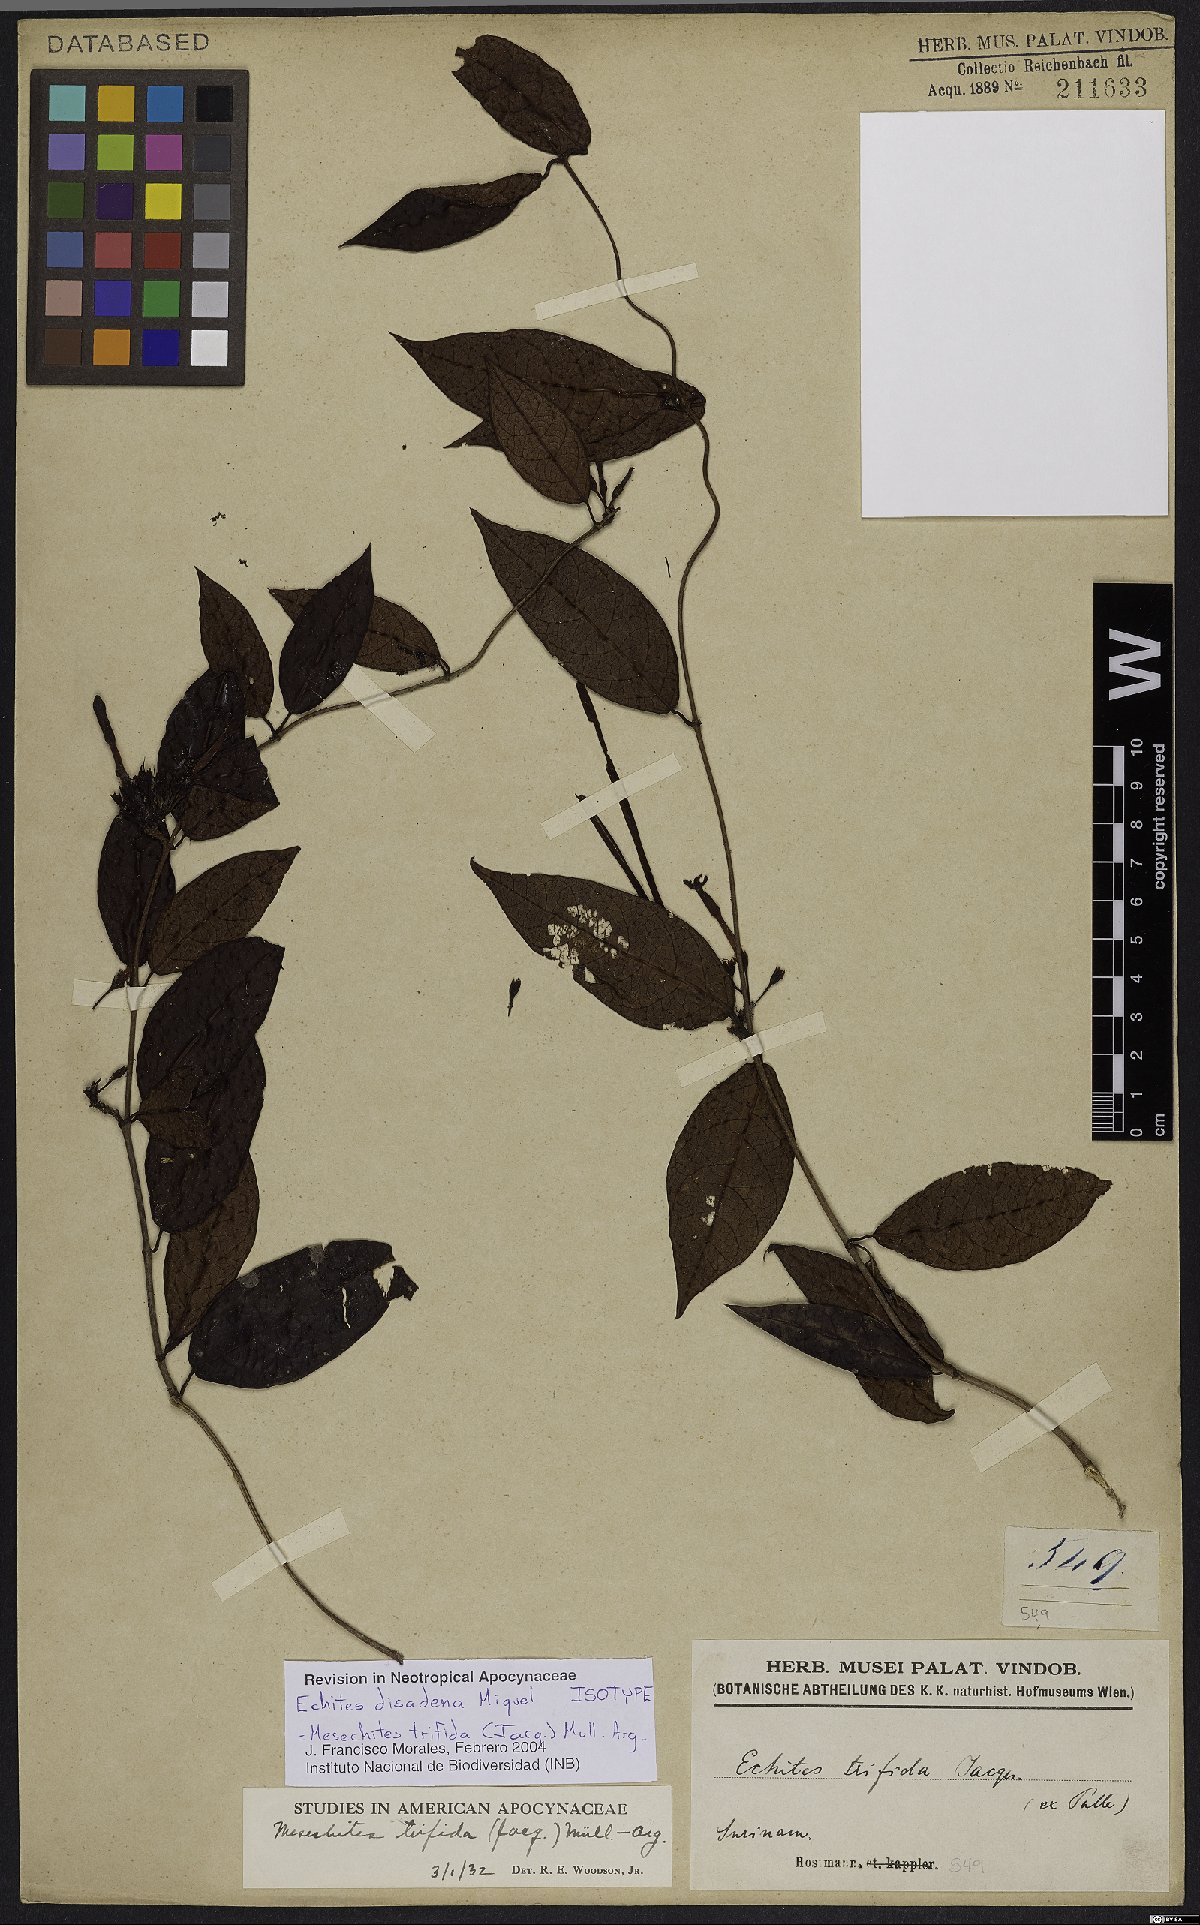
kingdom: Plantae
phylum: Tracheophyta
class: Magnoliopsida
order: Gentianales
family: Apocynaceae
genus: Mesechites
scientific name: Mesechites trifidus
